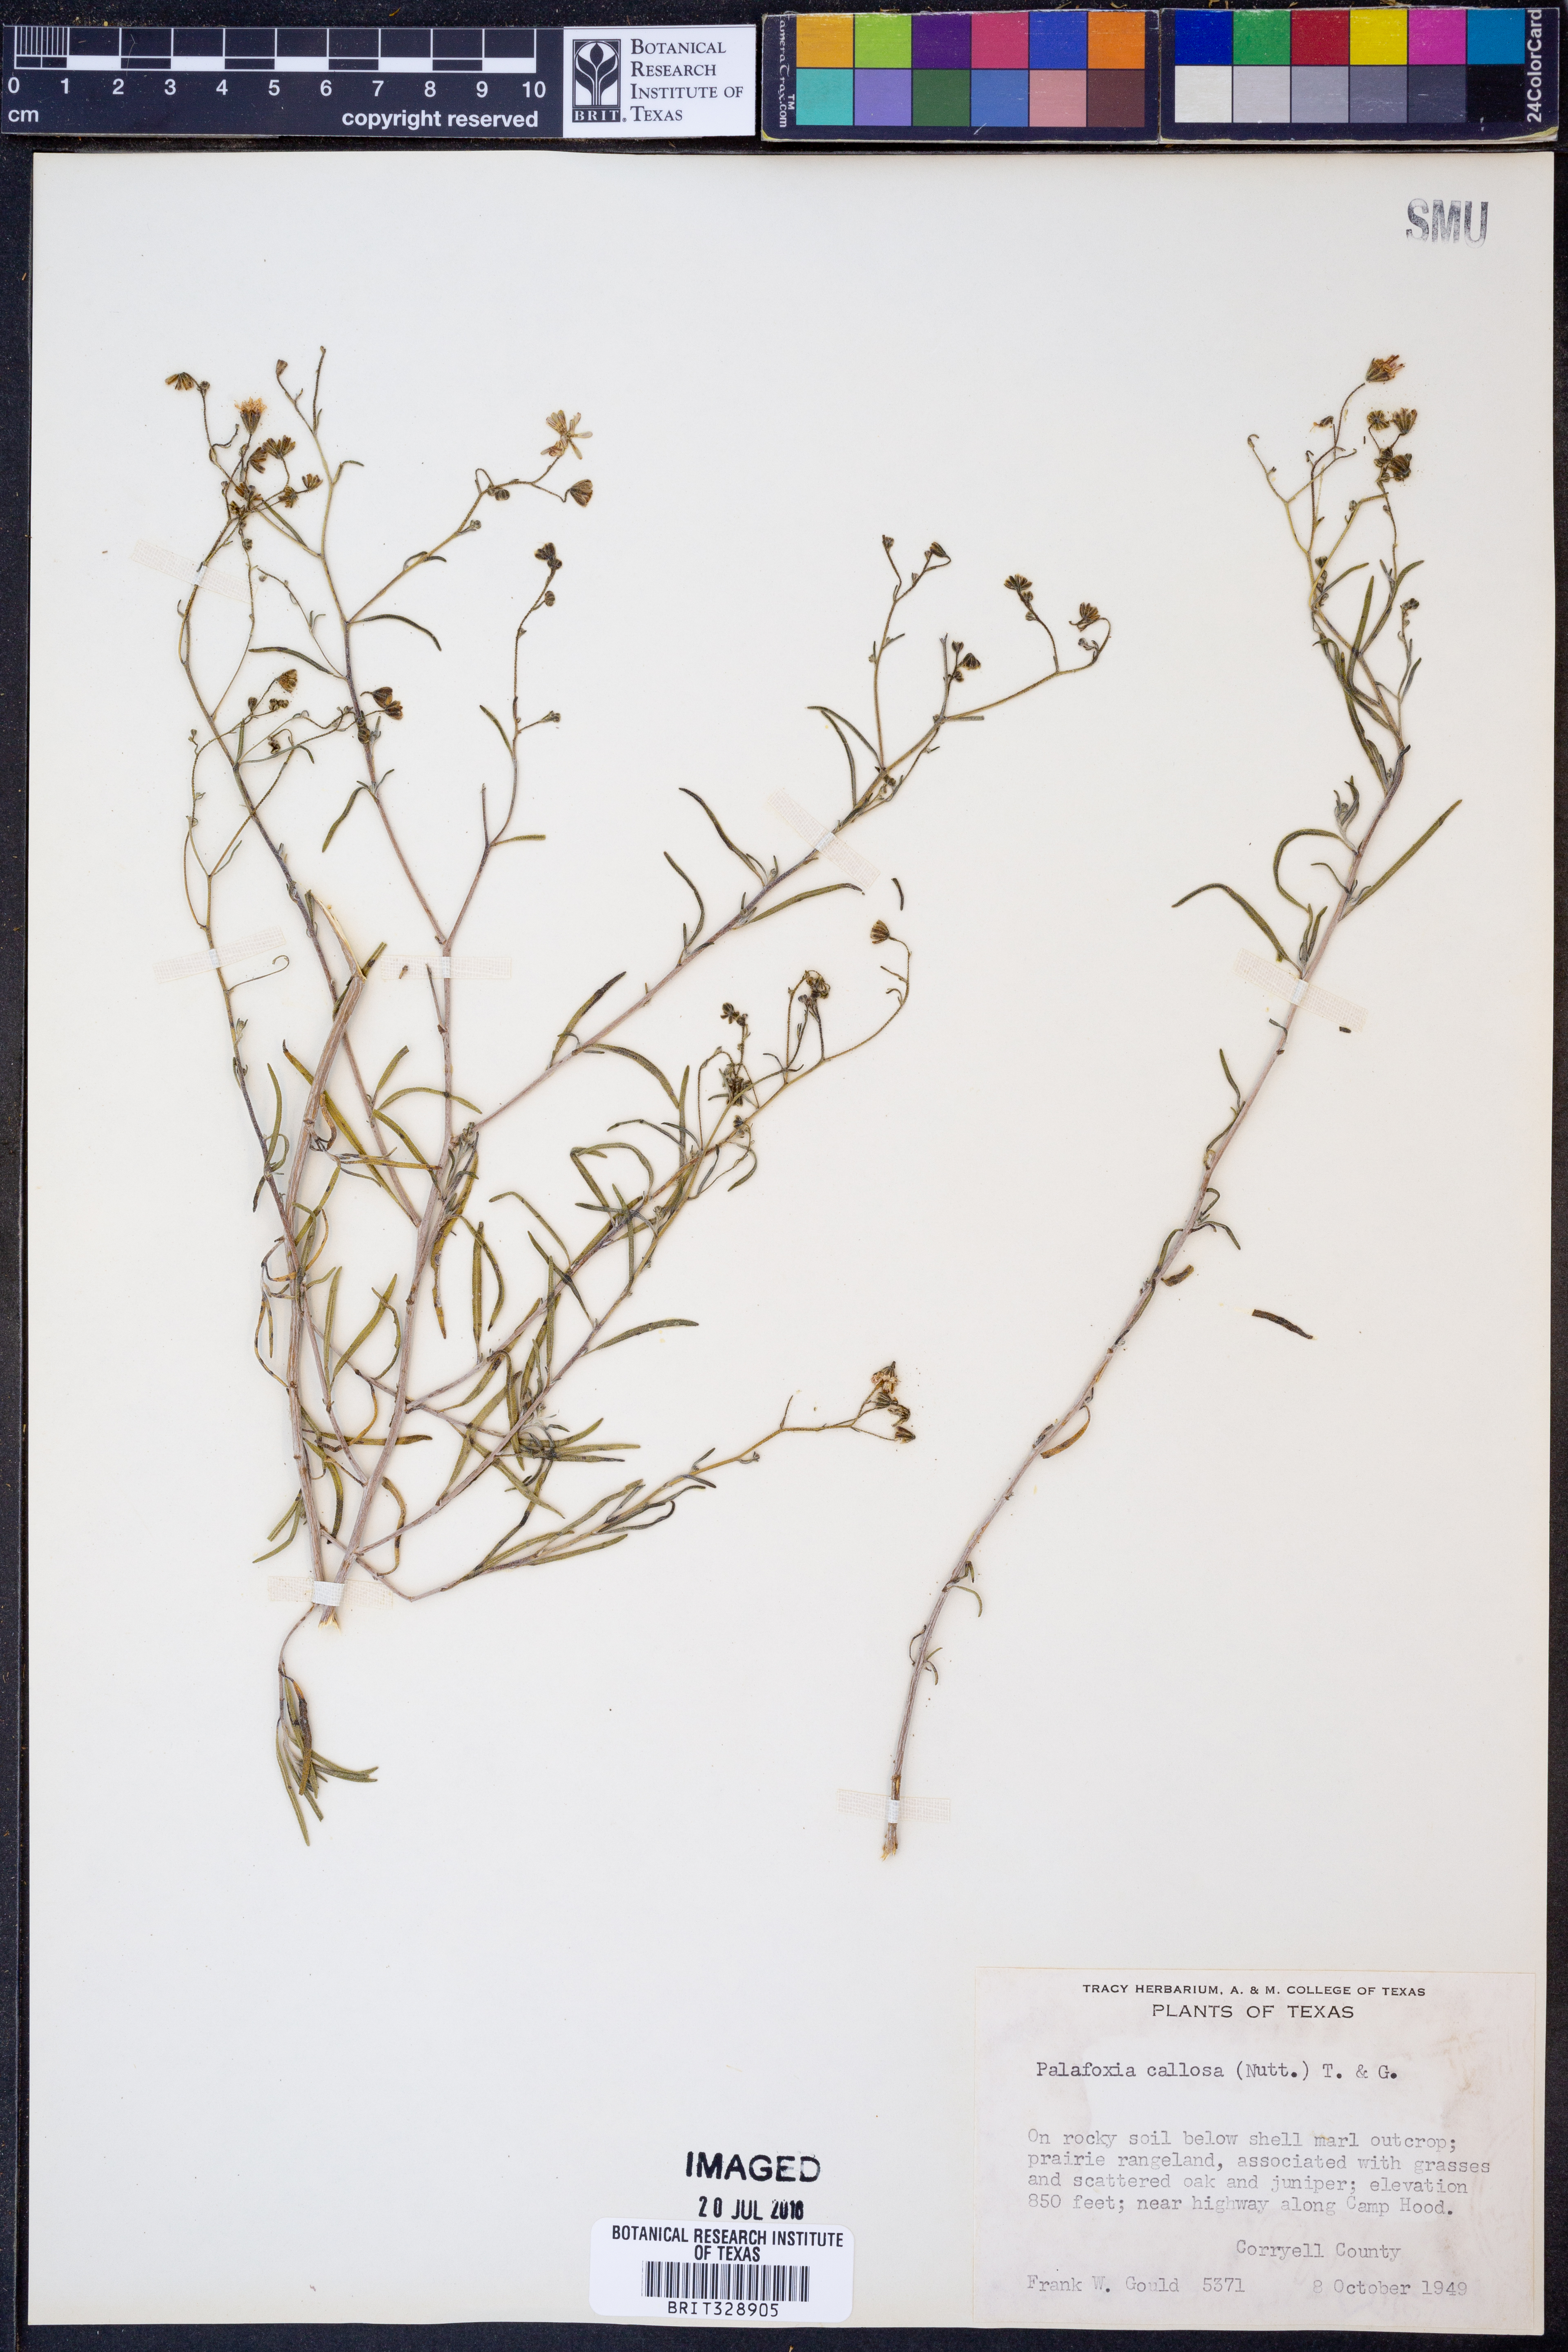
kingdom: Plantae
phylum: Tracheophyta
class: Magnoliopsida
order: Asterales
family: Asteraceae
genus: Palafoxia
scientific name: Palafoxia callosa
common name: Small palafox
